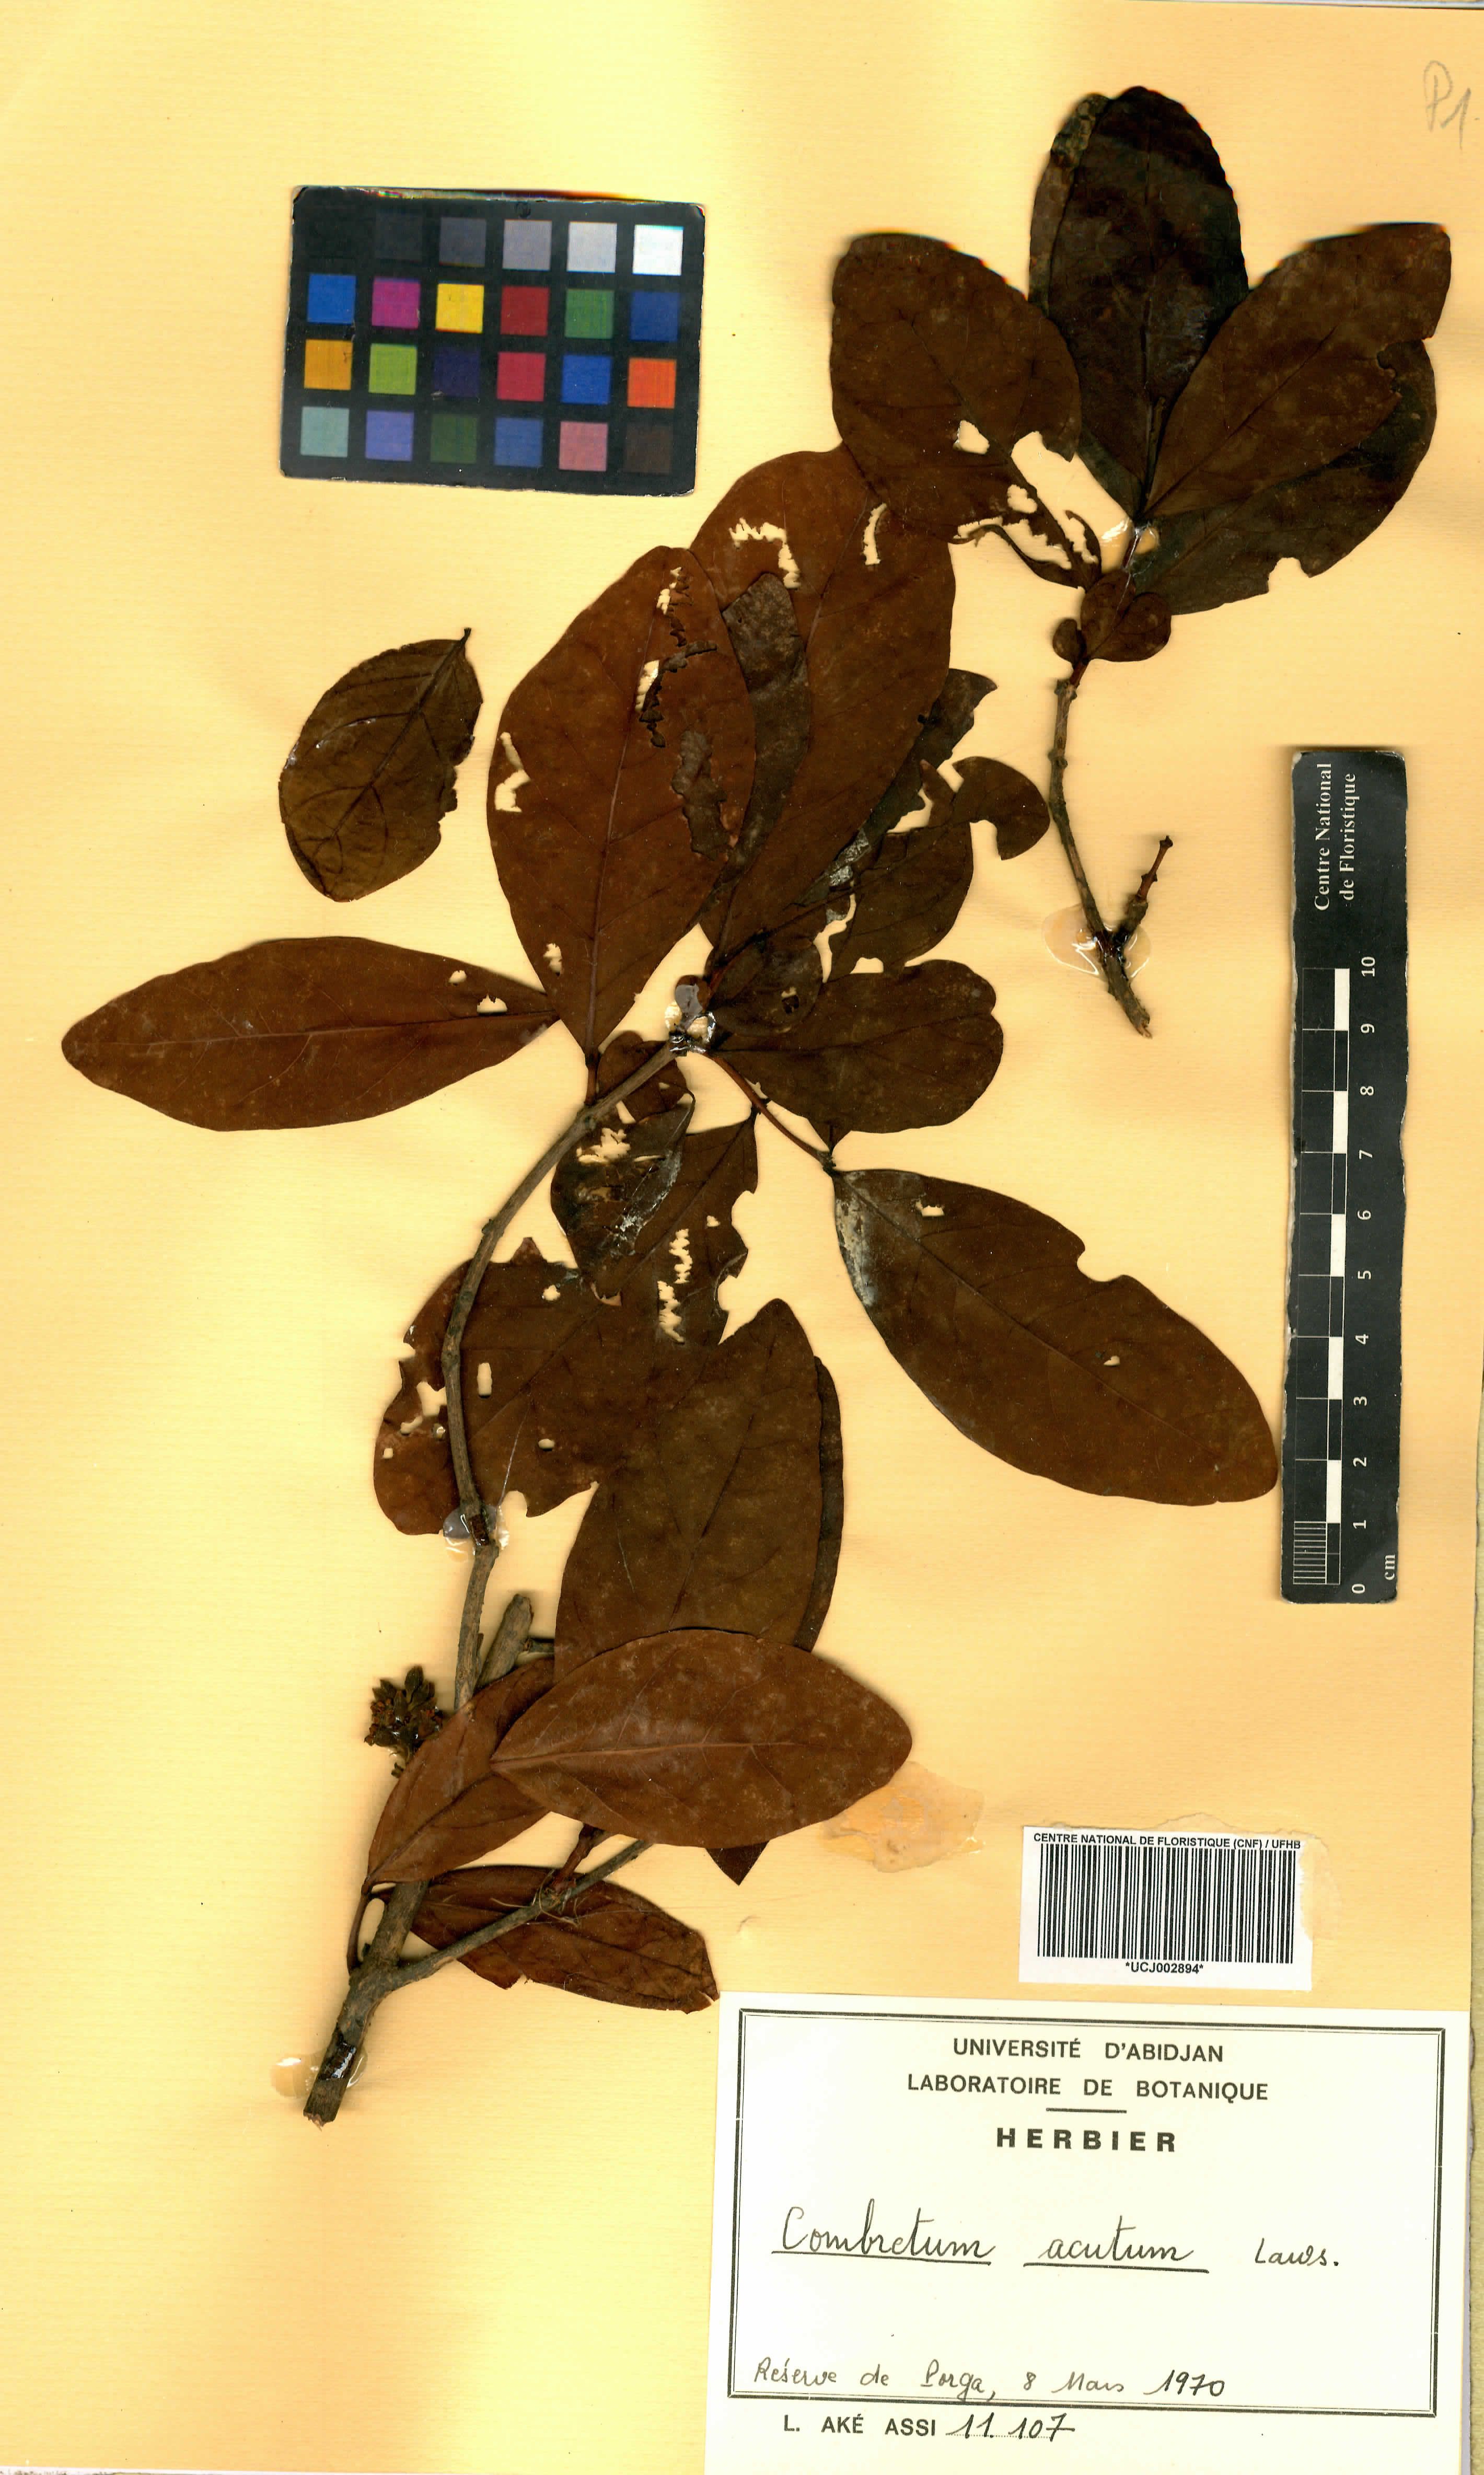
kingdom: Plantae
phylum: Tracheophyta
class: Magnoliopsida
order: Myrtales
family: Combretaceae
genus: Combretum
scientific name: Combretum acutum
